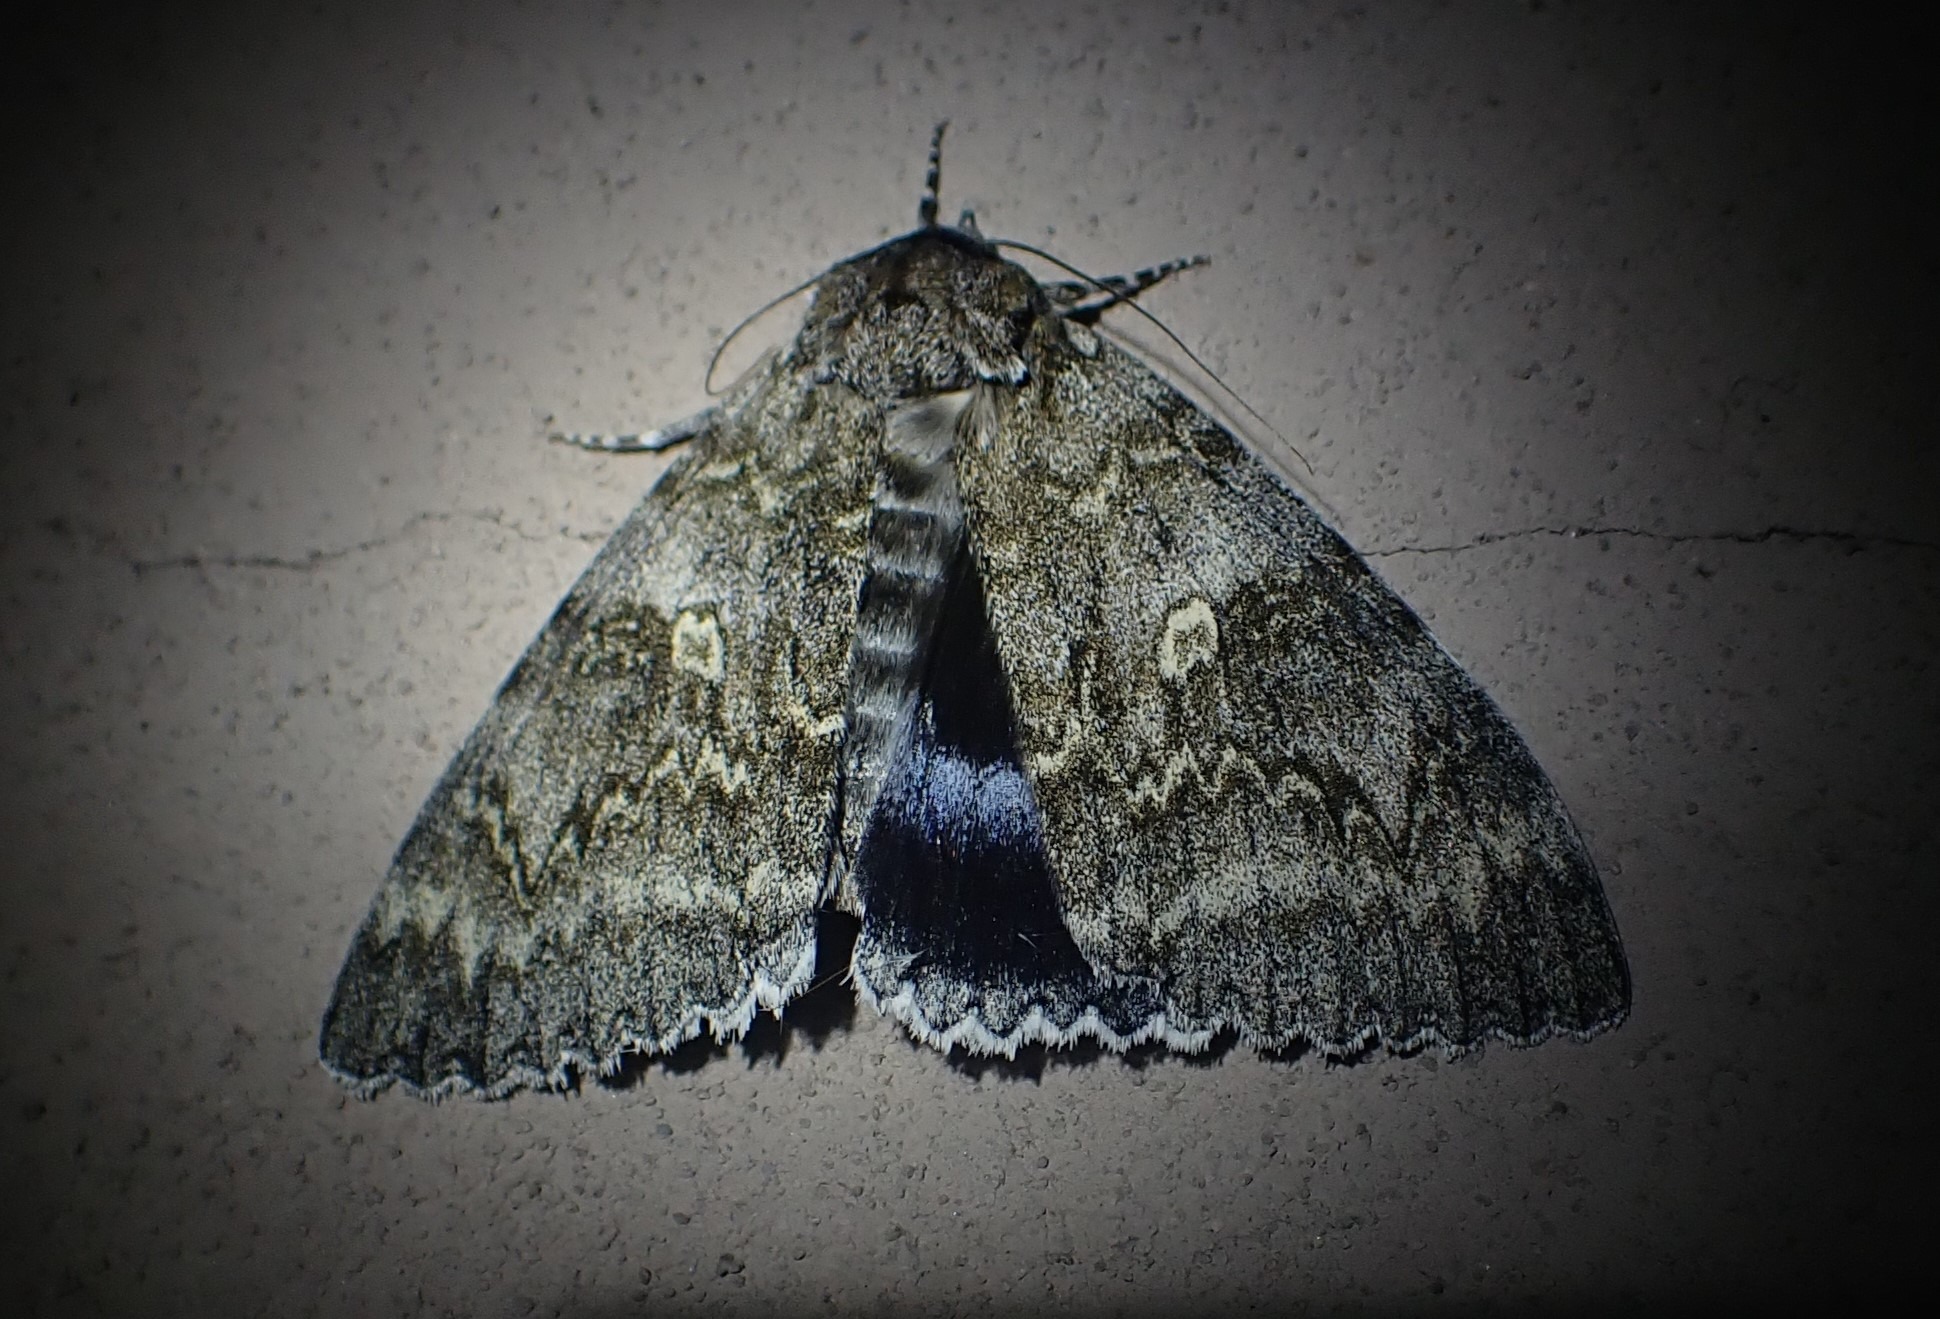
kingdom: Animalia
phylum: Arthropoda
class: Insecta
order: Lepidoptera
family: Erebidae
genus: Catocala
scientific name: Catocala fraxini
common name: Blåt ordensbånd
